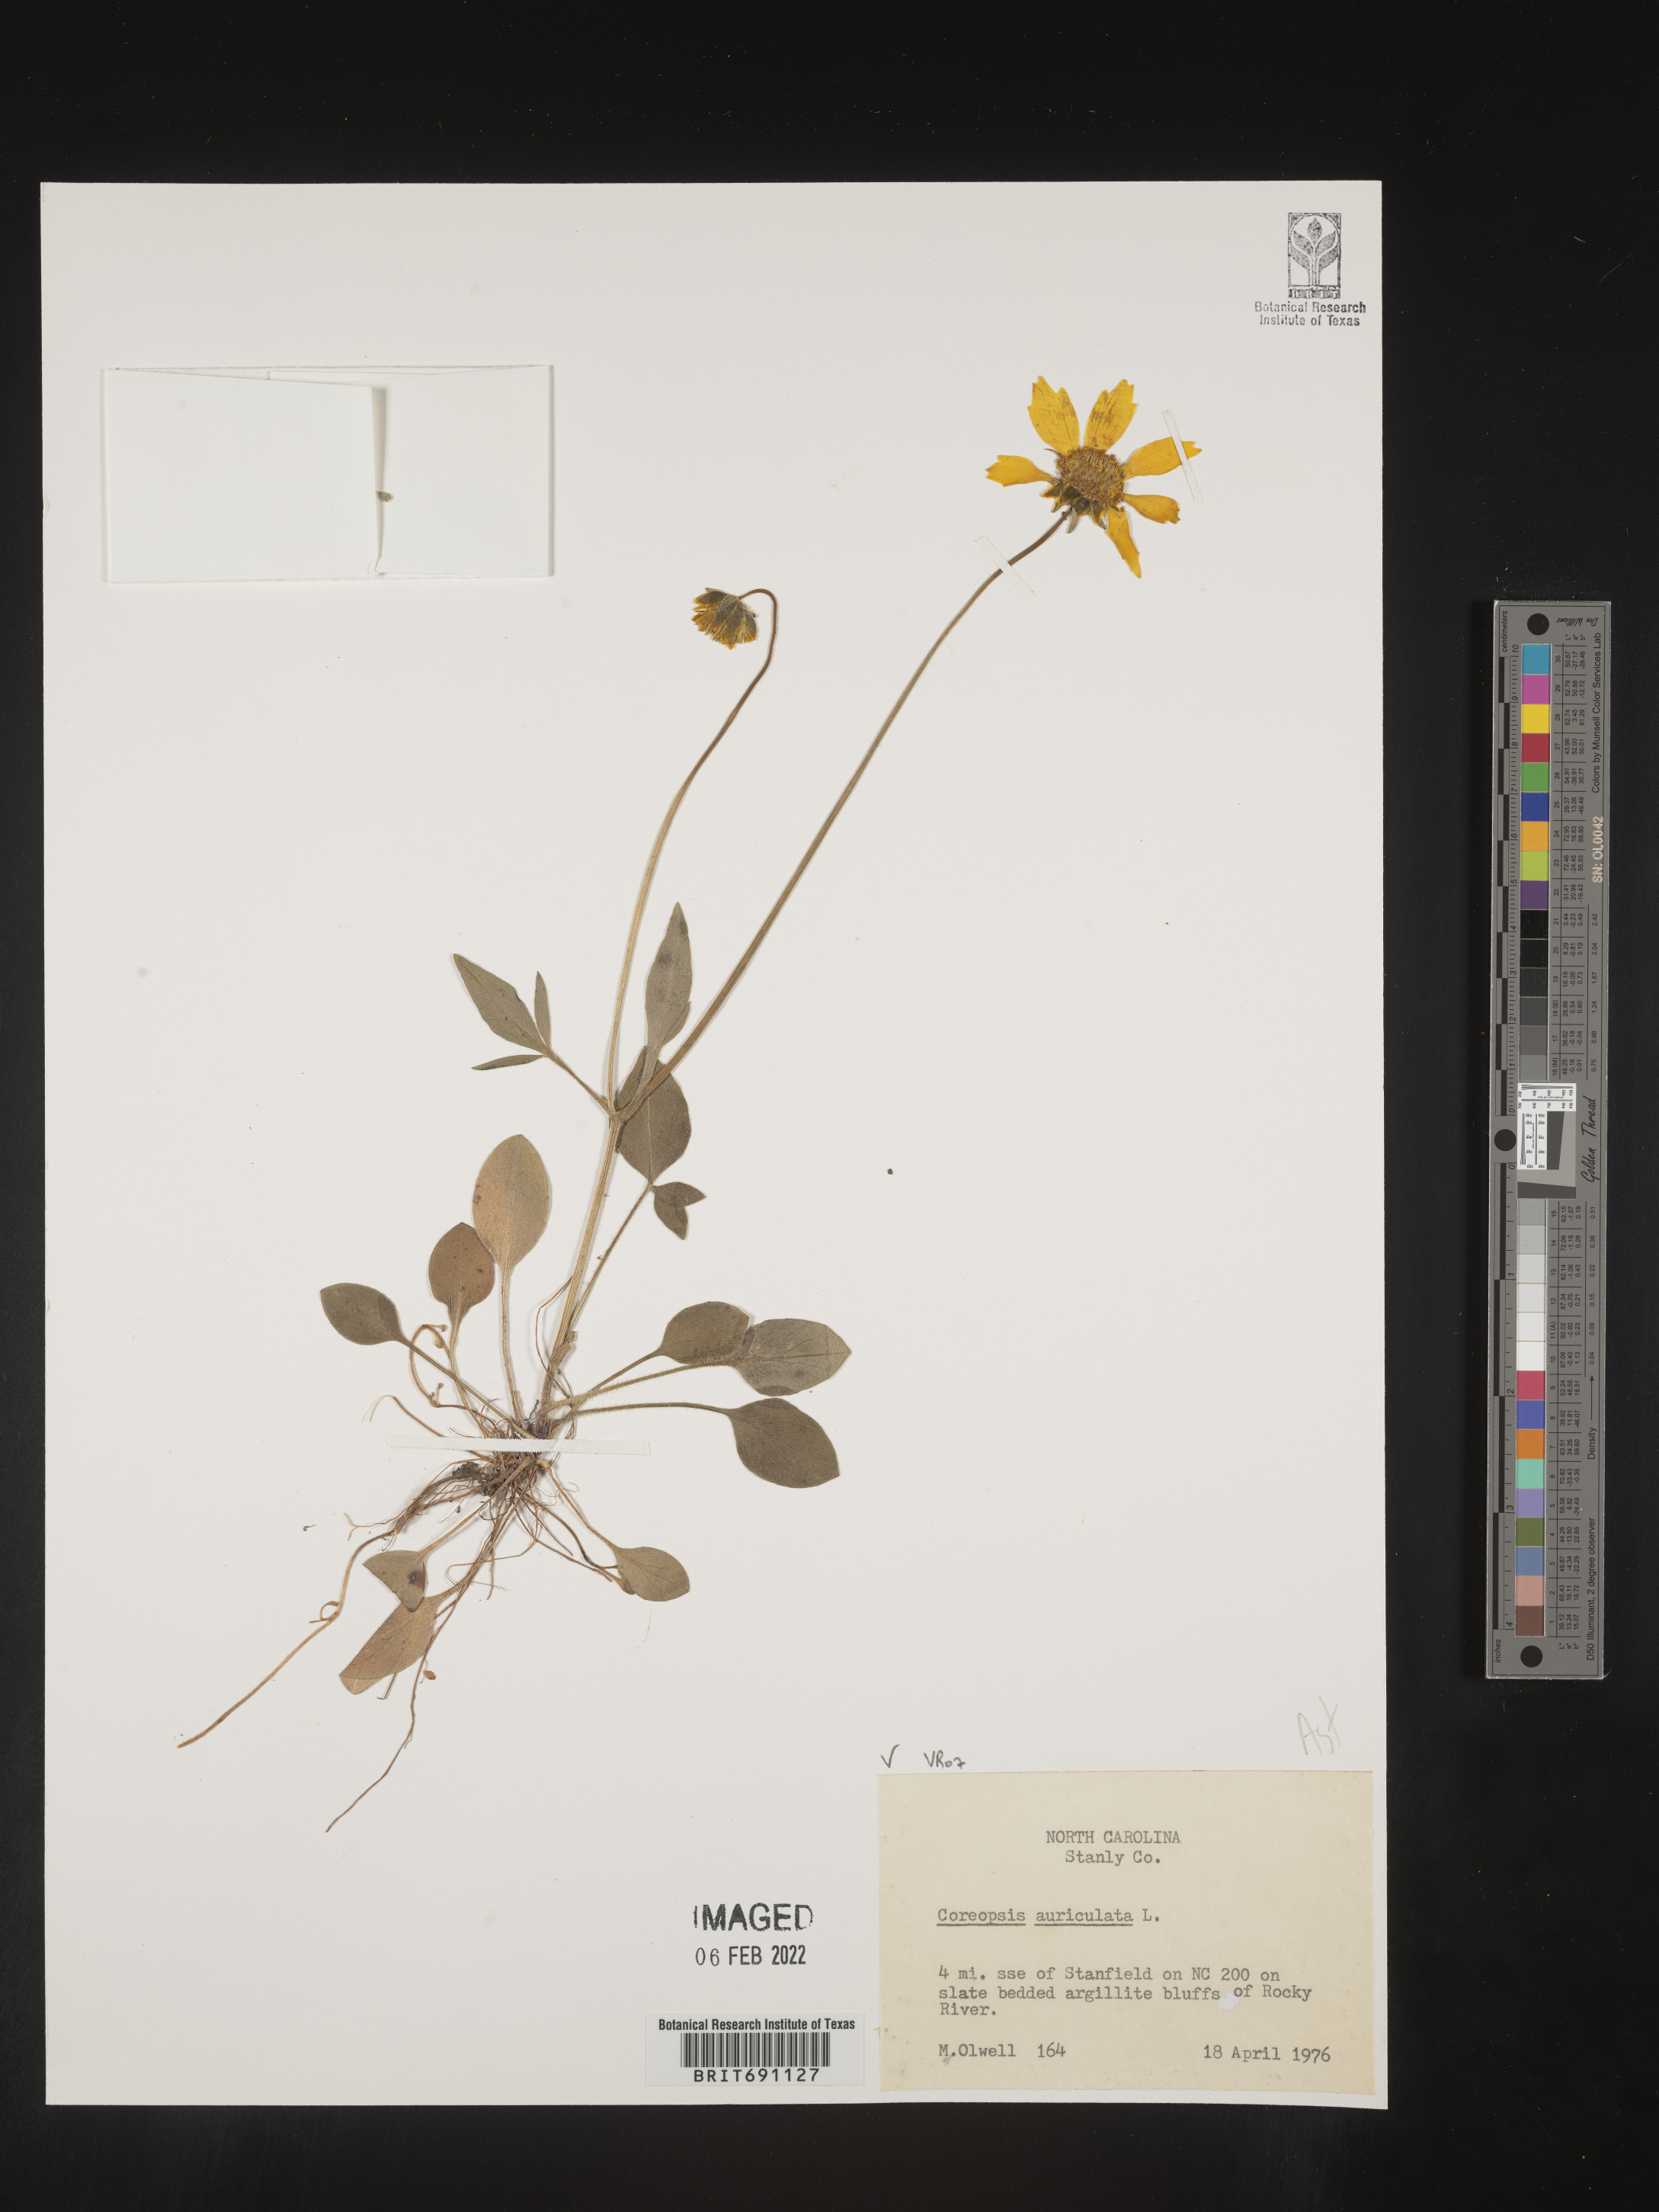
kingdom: Plantae
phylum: Tracheophyta
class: Magnoliopsida
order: Asterales
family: Asteraceae
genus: Coreopsis
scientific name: Coreopsis auriculata
